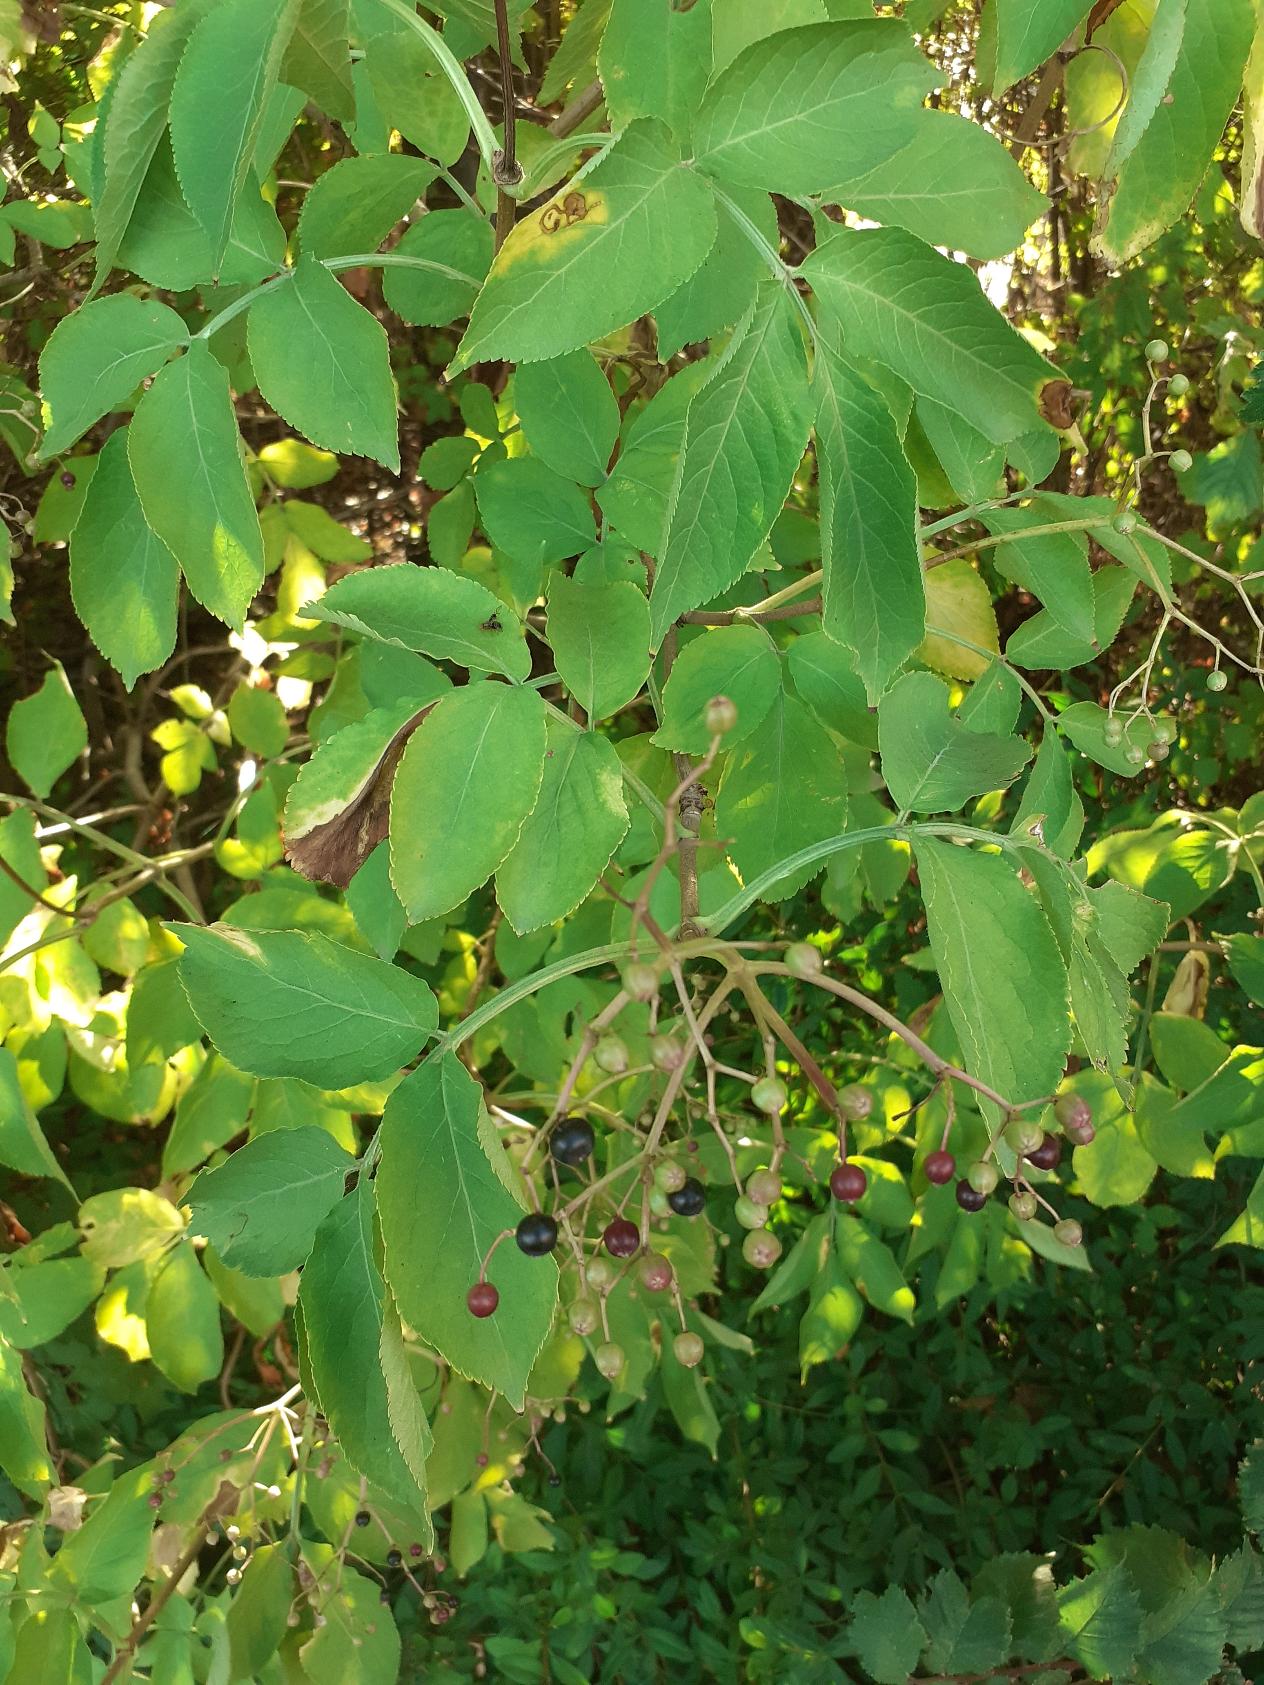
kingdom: Plantae
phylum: Tracheophyta
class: Magnoliopsida
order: Dipsacales
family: Viburnaceae
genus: Sambucus
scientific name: Sambucus nigra
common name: Almindelig hyld
